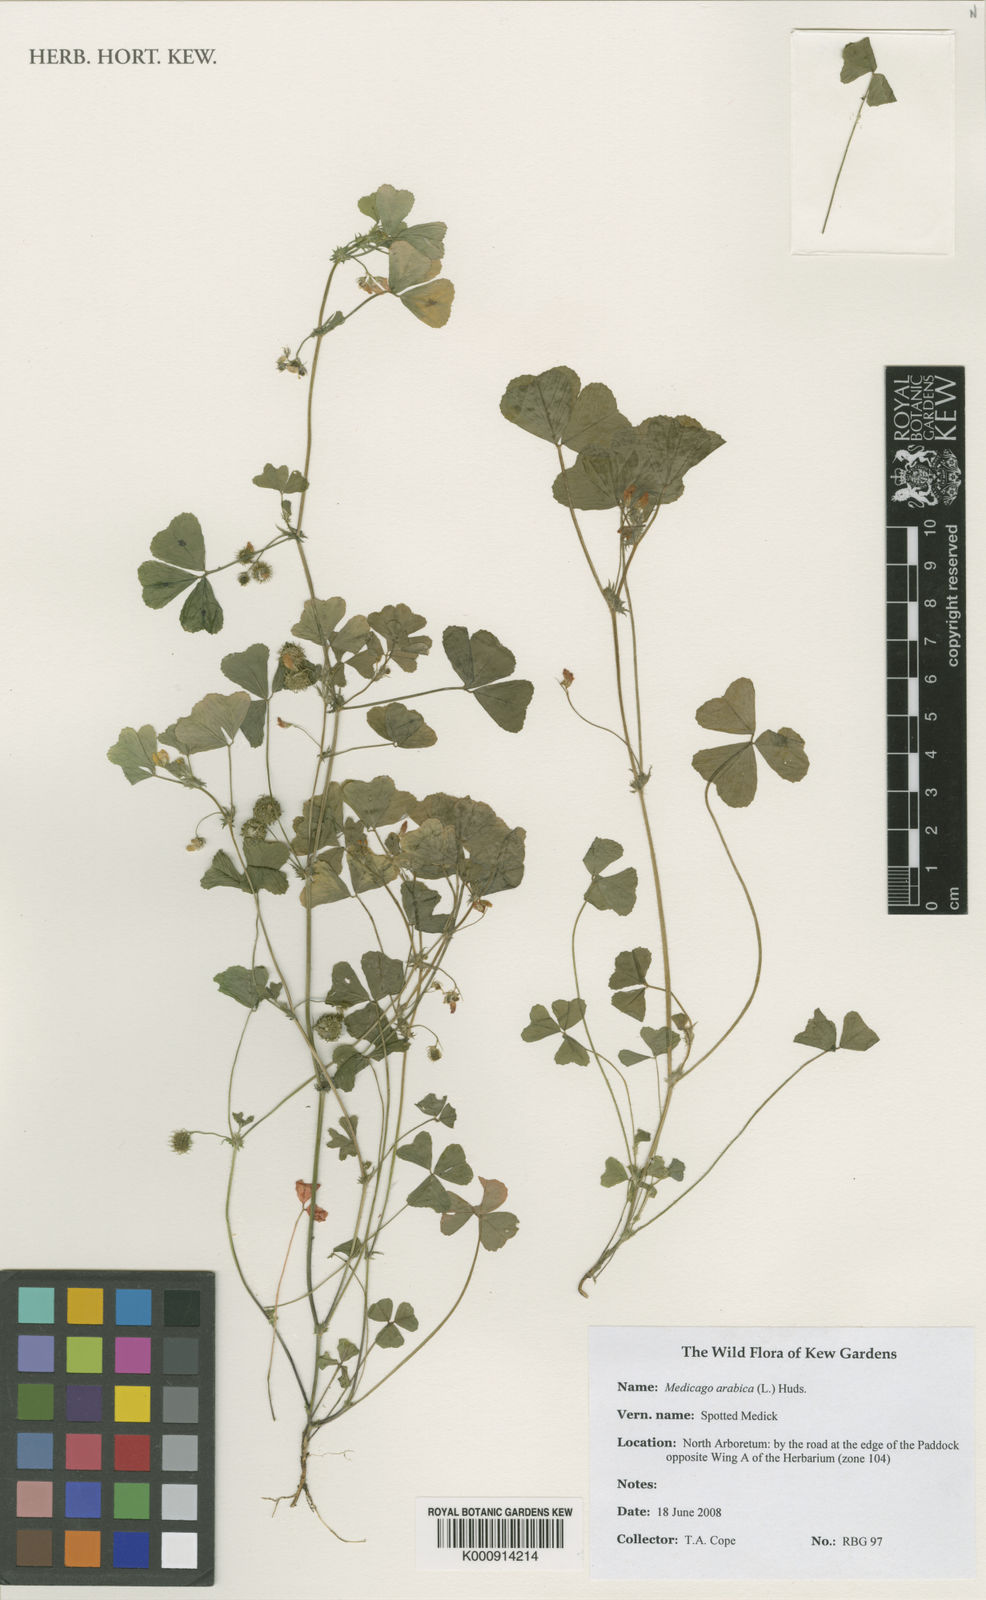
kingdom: Plantae
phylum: Tracheophyta
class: Magnoliopsida
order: Fabales
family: Fabaceae
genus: Medicago
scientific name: Medicago arabica
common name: Spotted medick
